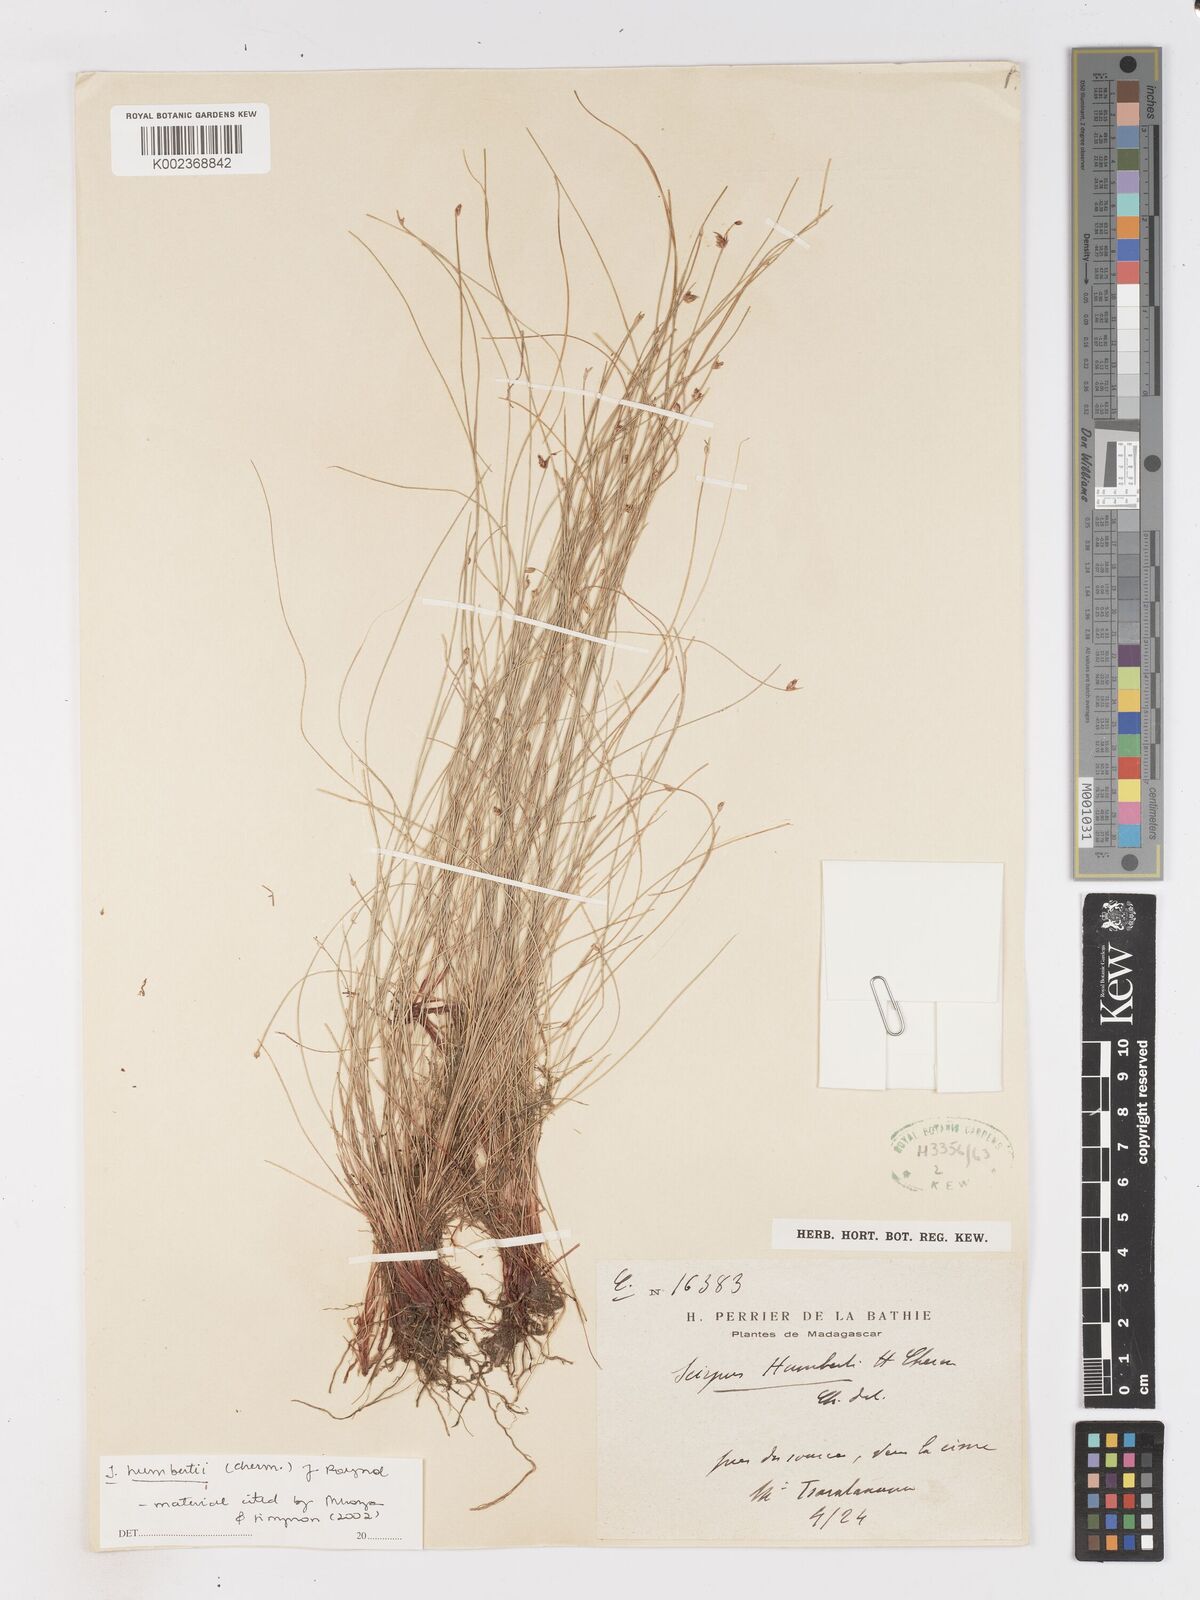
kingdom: Plantae
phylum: Tracheophyta
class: Liliopsida
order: Poales
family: Cyperaceae
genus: Isolepis
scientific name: Isolepis humbertii
